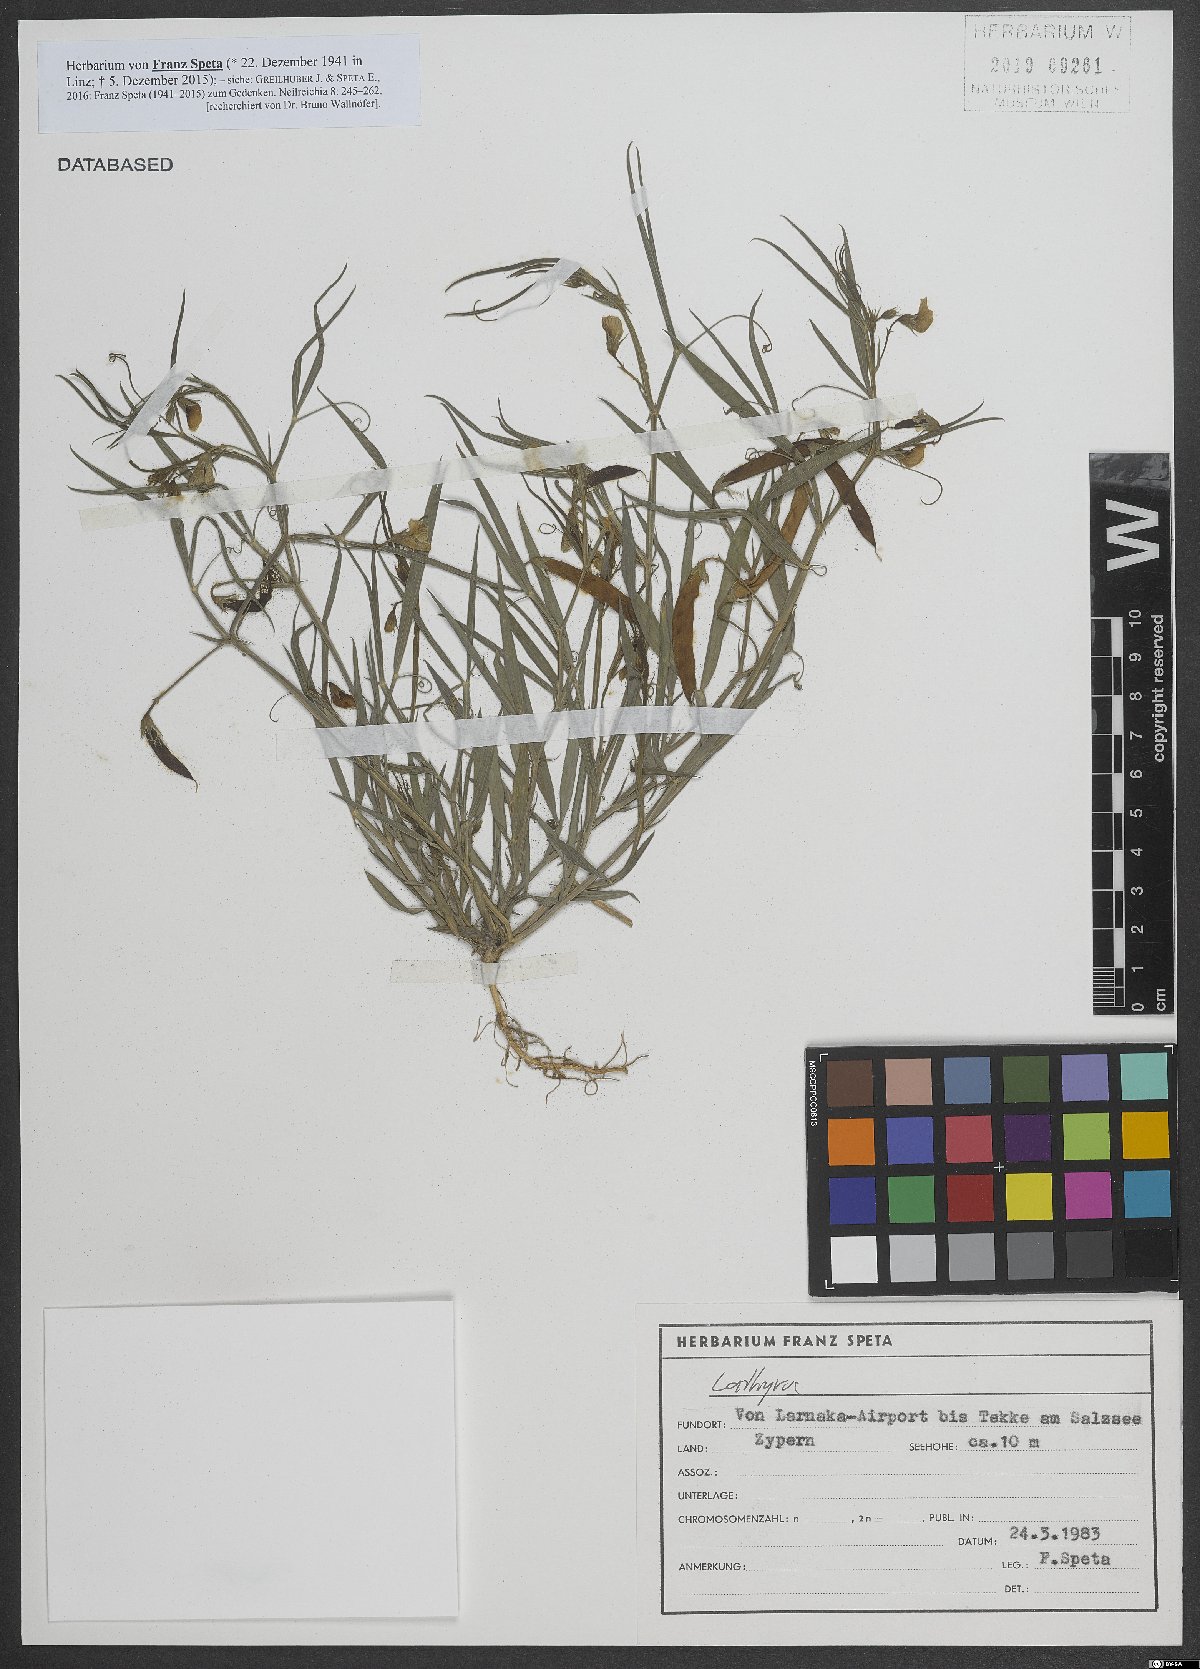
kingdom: Plantae
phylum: Tracheophyta
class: Magnoliopsida
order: Fabales
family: Fabaceae
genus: Lathyrus
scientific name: Lathyrus
